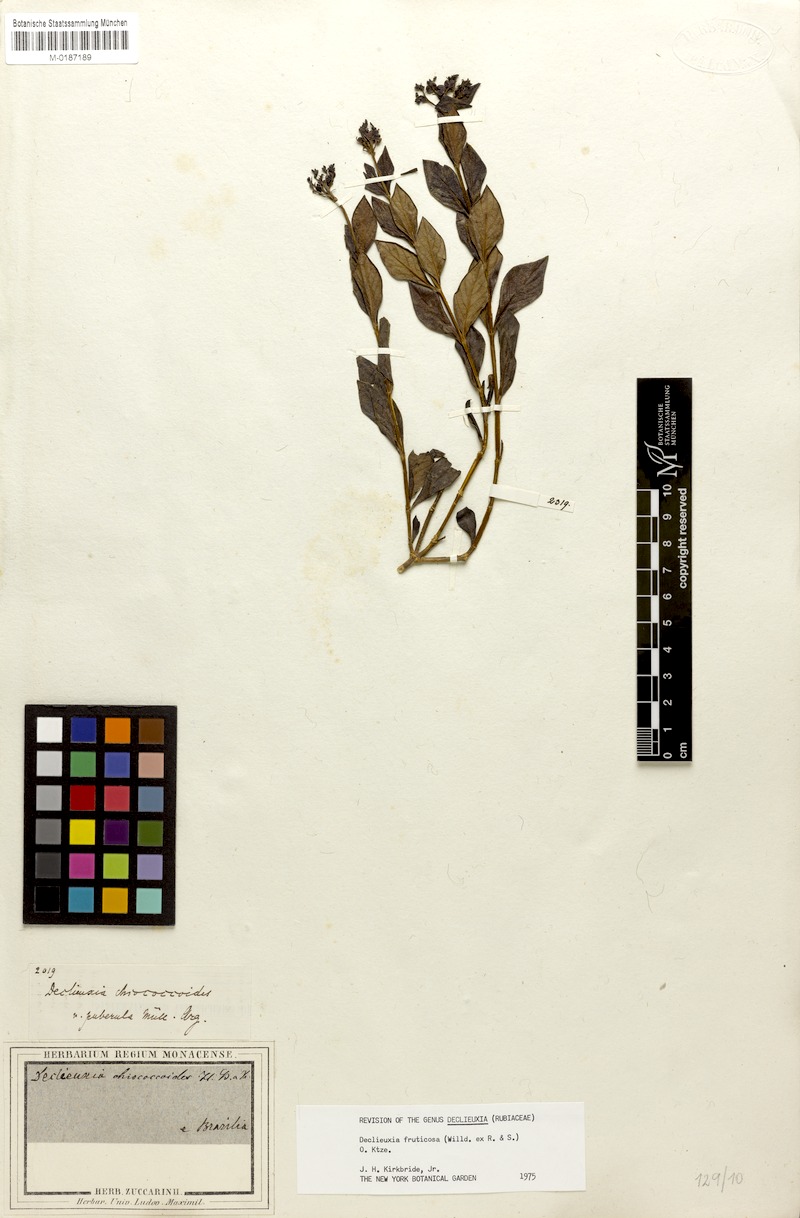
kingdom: Plantae
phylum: Tracheophyta
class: Magnoliopsida
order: Gentianales
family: Rubiaceae
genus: Declieuxia
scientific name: Declieuxia fruticosa
